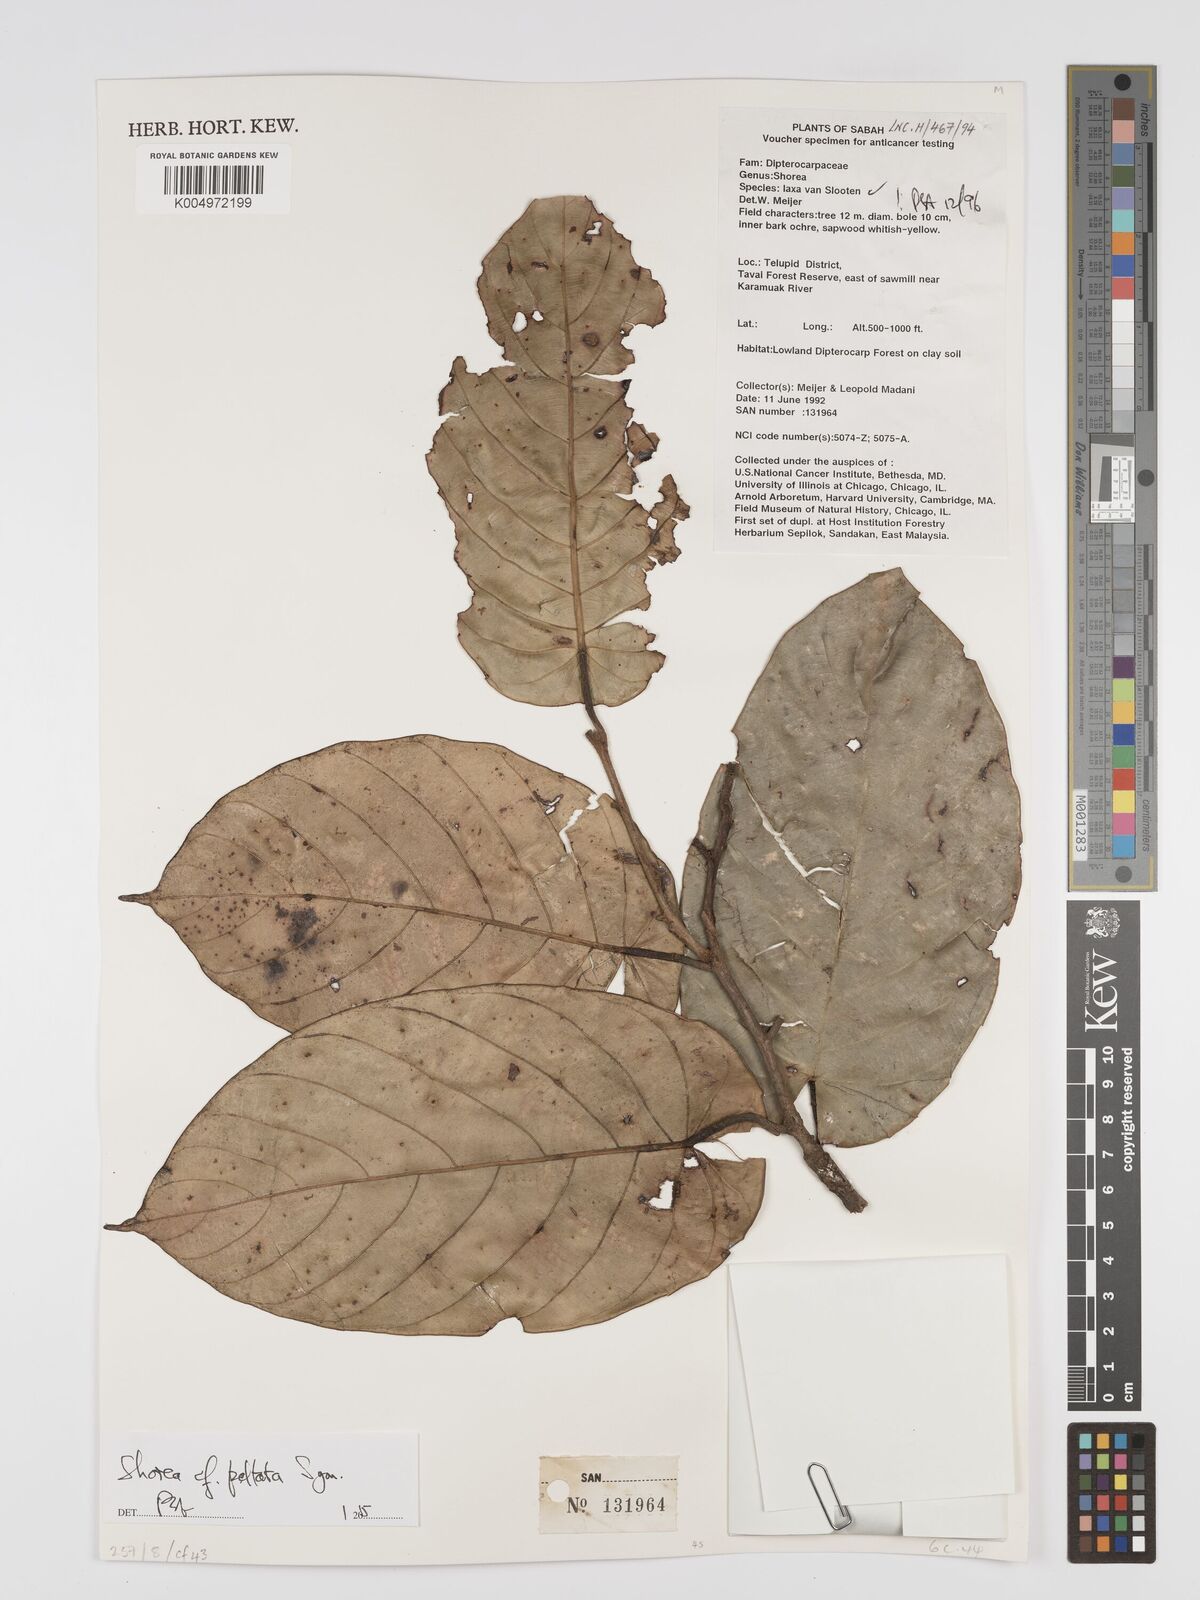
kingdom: Plantae
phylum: Tracheophyta
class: Magnoliopsida
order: Malvales
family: Dipterocarpaceae
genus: Shorea
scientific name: Shorea peltata
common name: Yellow meranti
